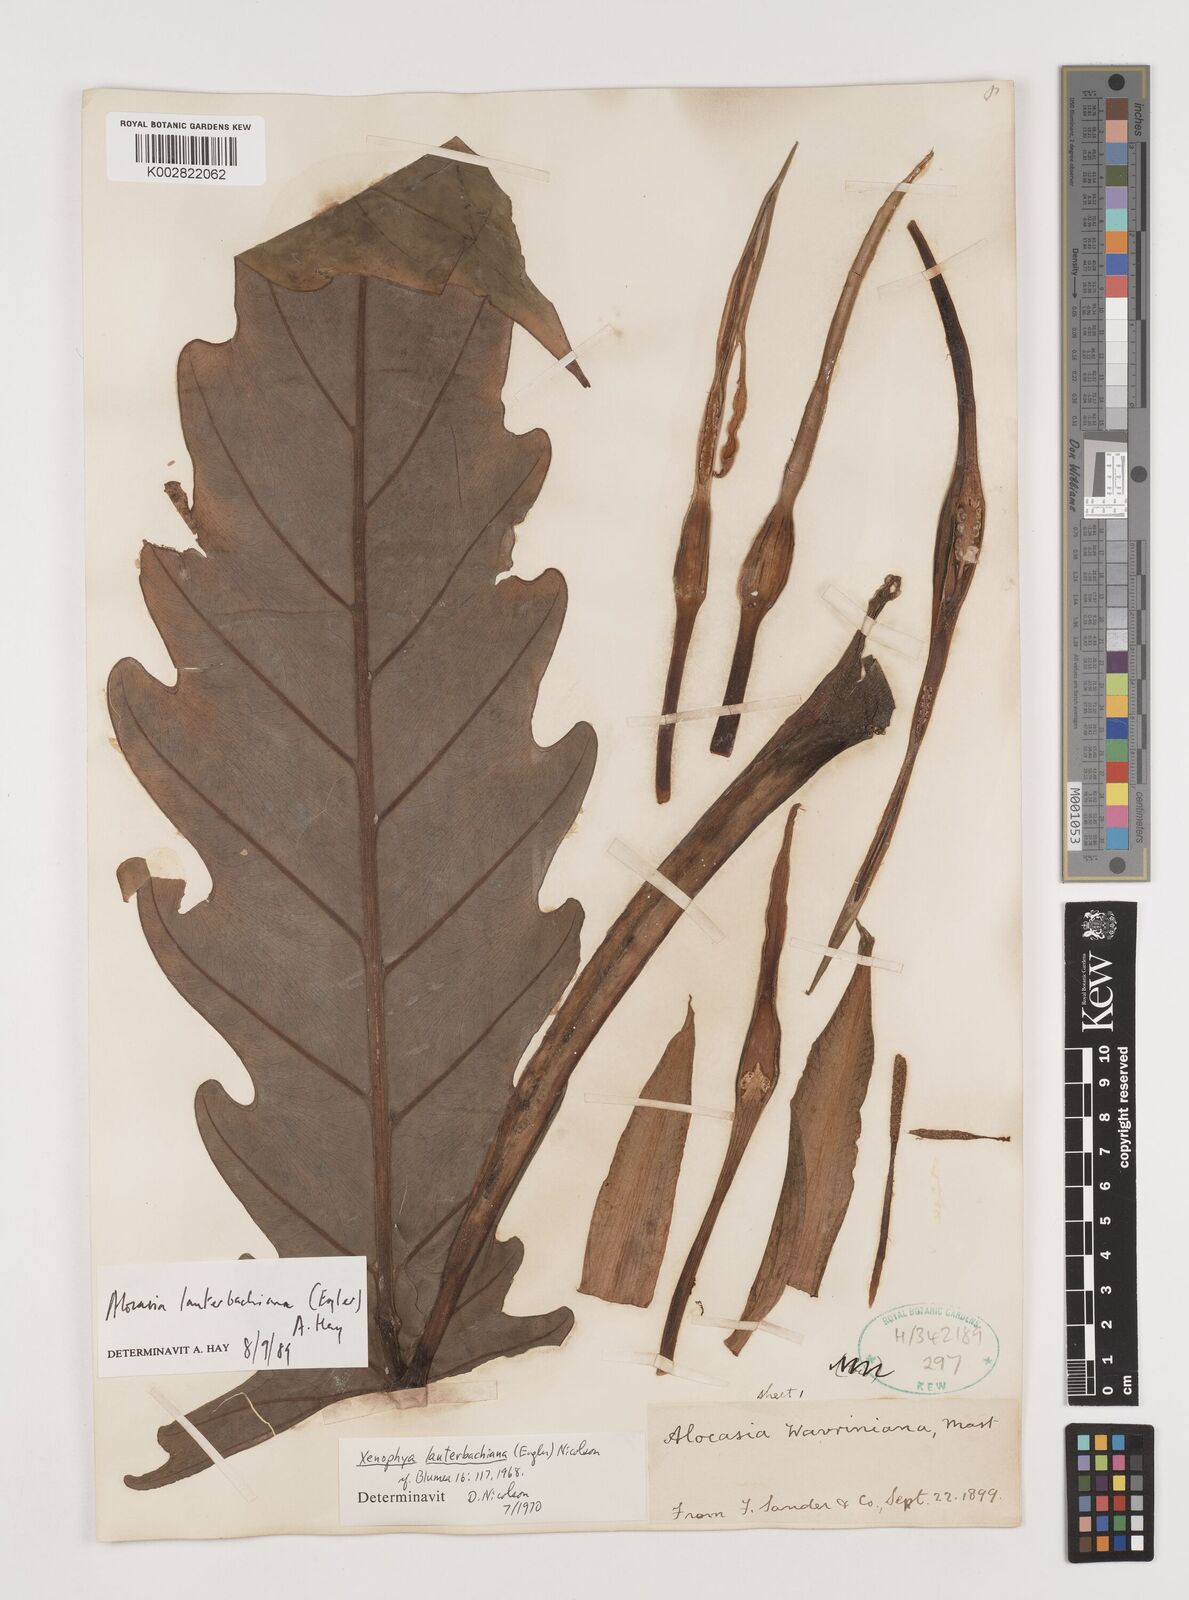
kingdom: Plantae
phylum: Tracheophyta
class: Liliopsida
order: Alismatales
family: Araceae
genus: Alocasia
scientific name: Alocasia lauterbachiana
